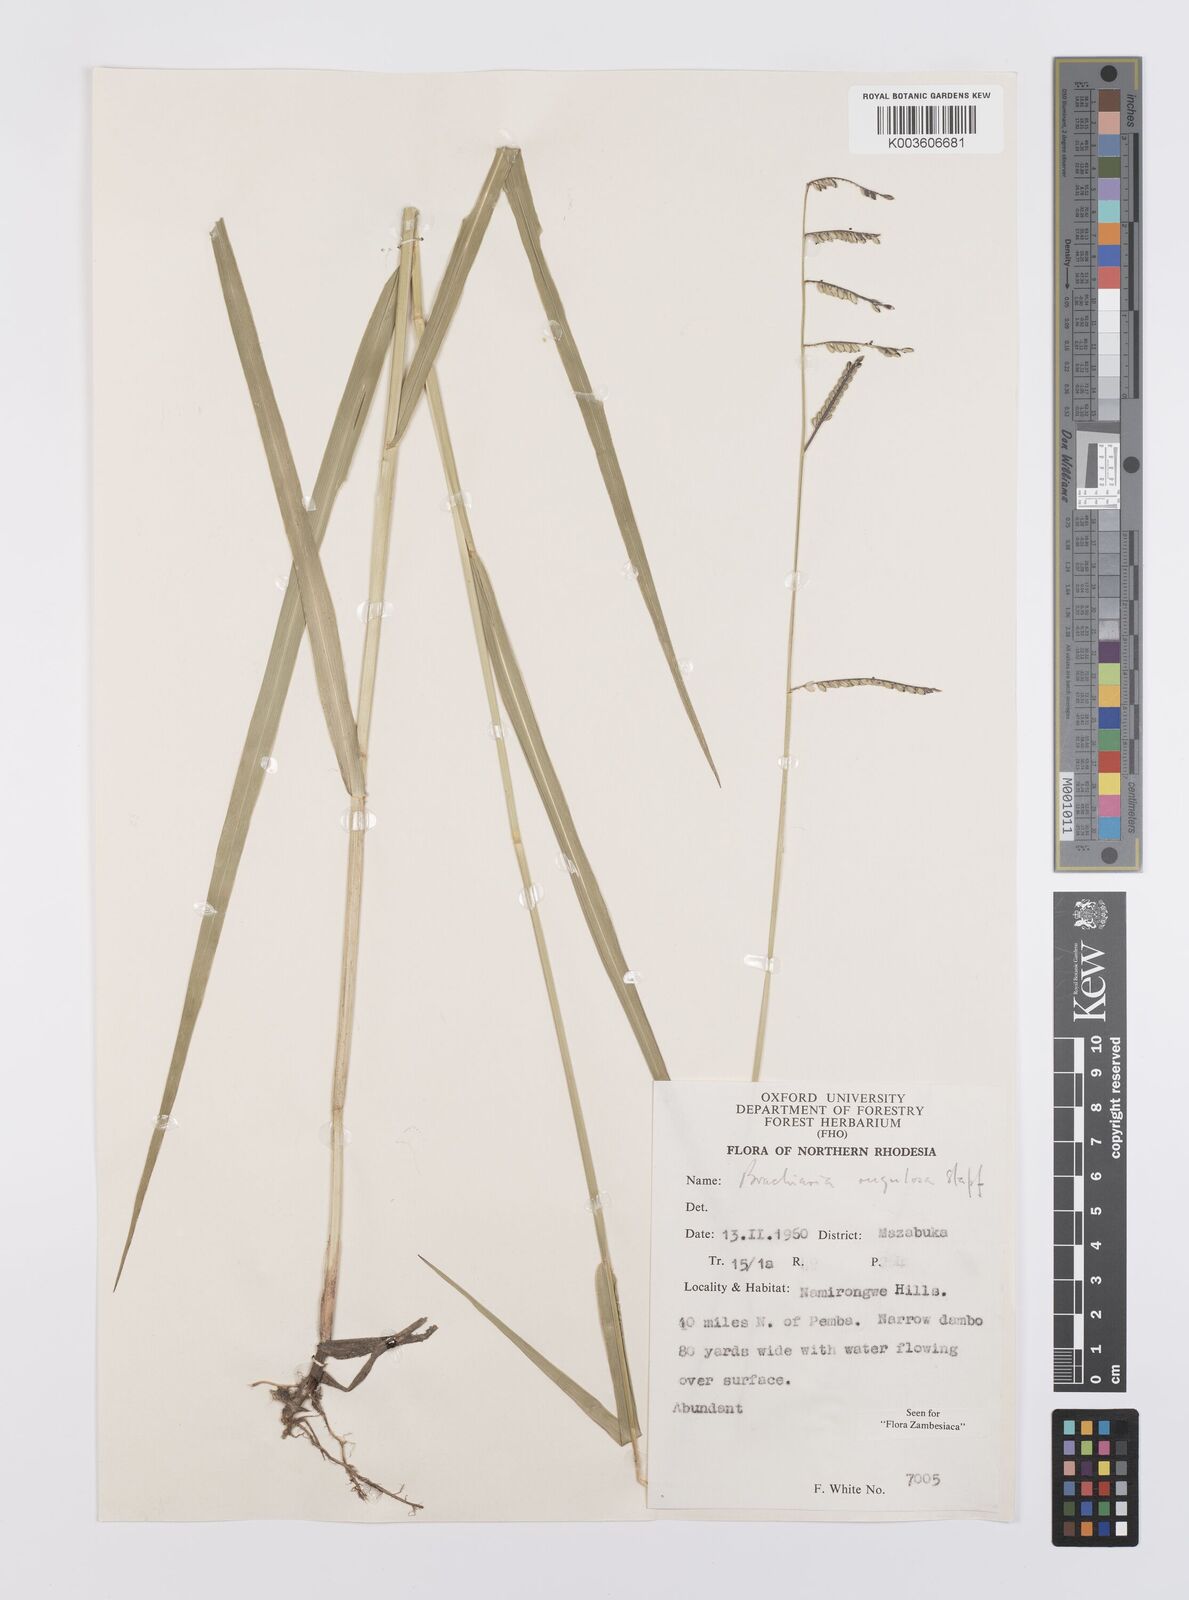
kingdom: Plantae
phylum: Tracheophyta
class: Liliopsida
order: Poales
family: Poaceae
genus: Urochloa
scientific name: Urochloa rugulosa
